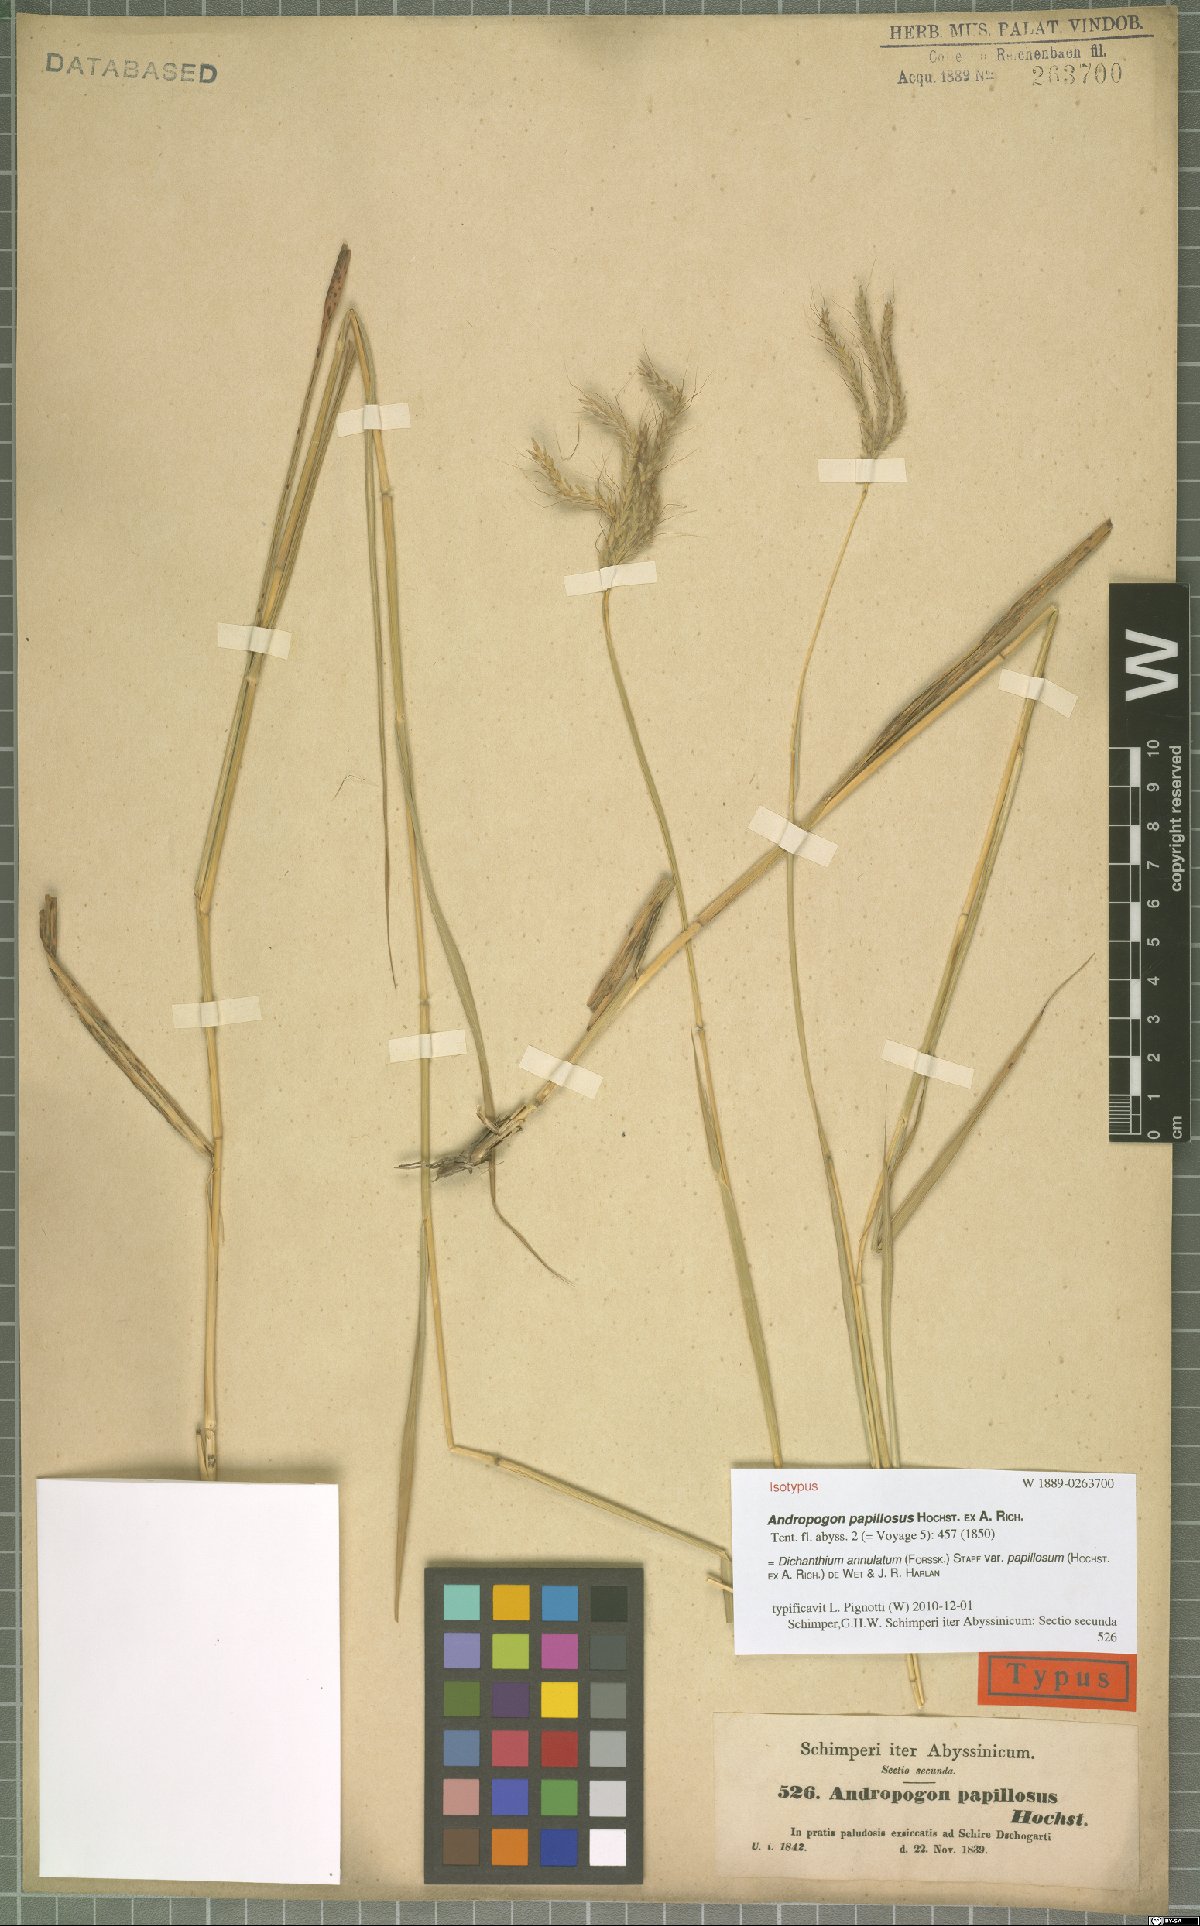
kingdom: Plantae
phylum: Tracheophyta
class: Liliopsida
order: Poales
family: Poaceae
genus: Dichanthium
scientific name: Dichanthium annulatum
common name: Kleberg's bluestem
